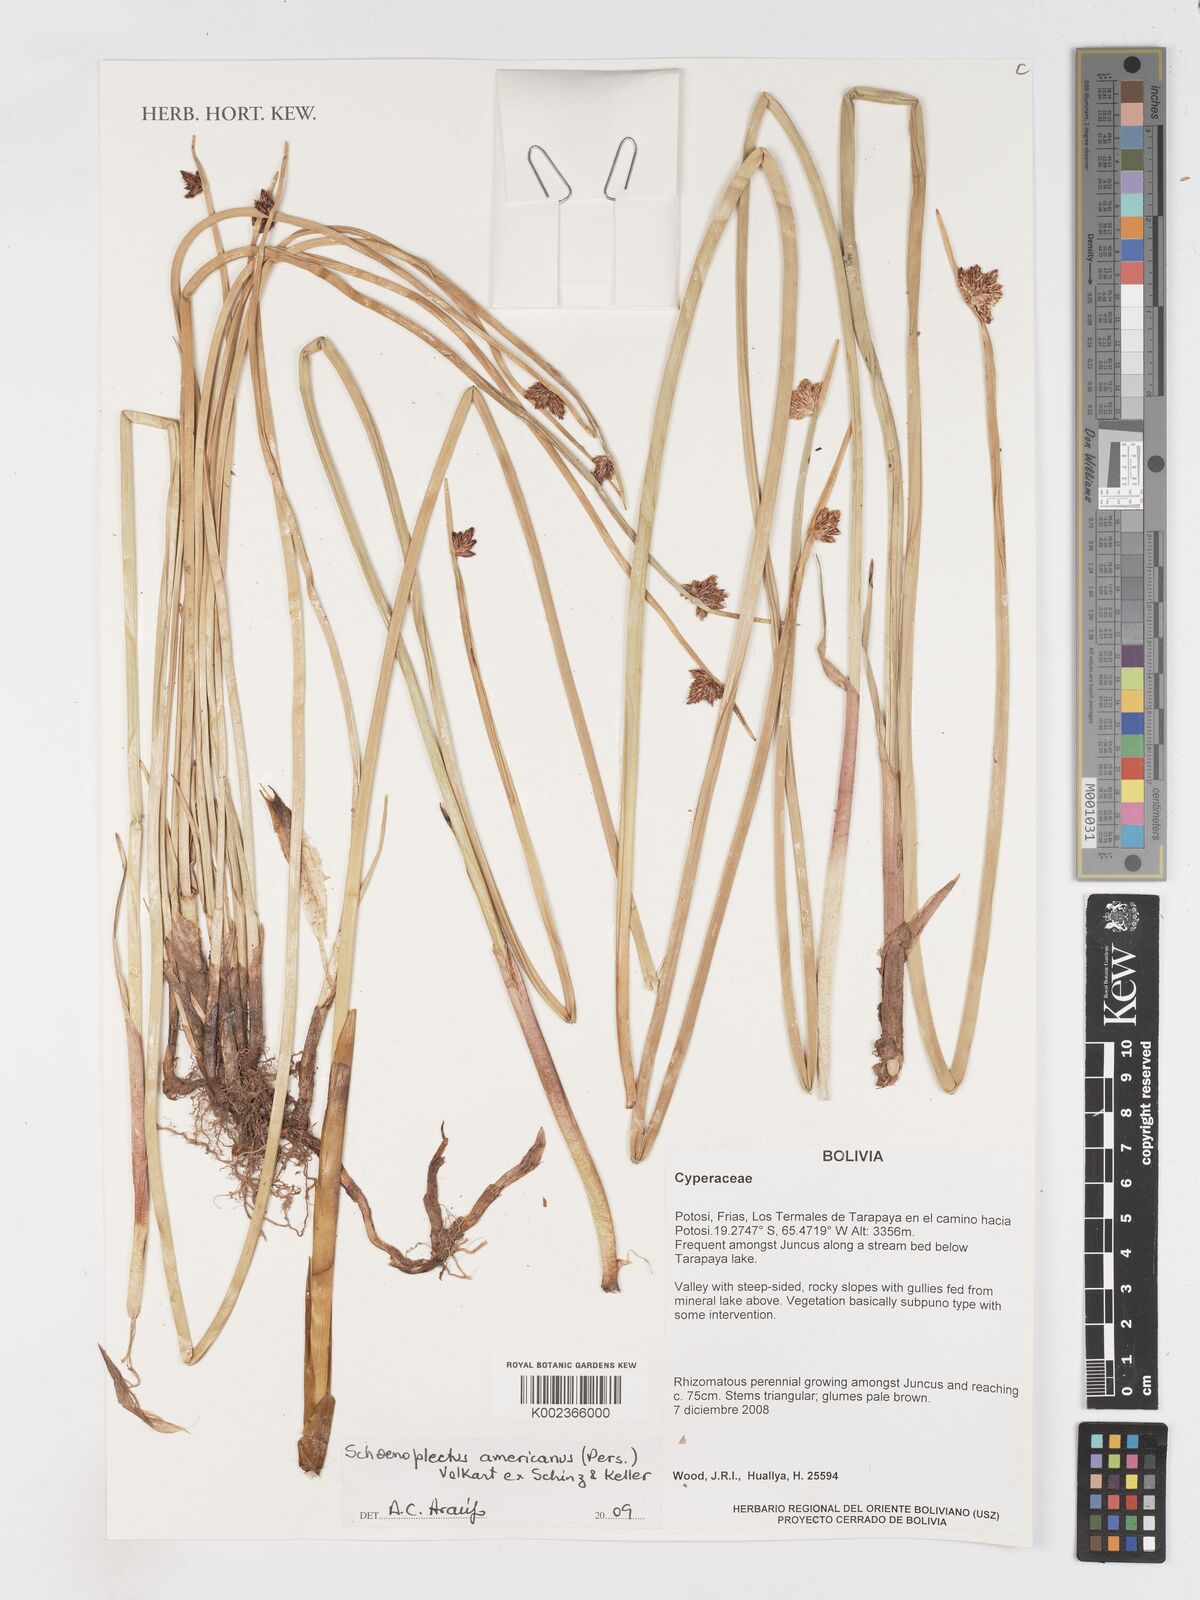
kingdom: Plantae
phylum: Tracheophyta
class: Liliopsida
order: Poales
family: Cyperaceae
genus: Schoenoplectus
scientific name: Schoenoplectus americanus
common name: American three-square bulrush
